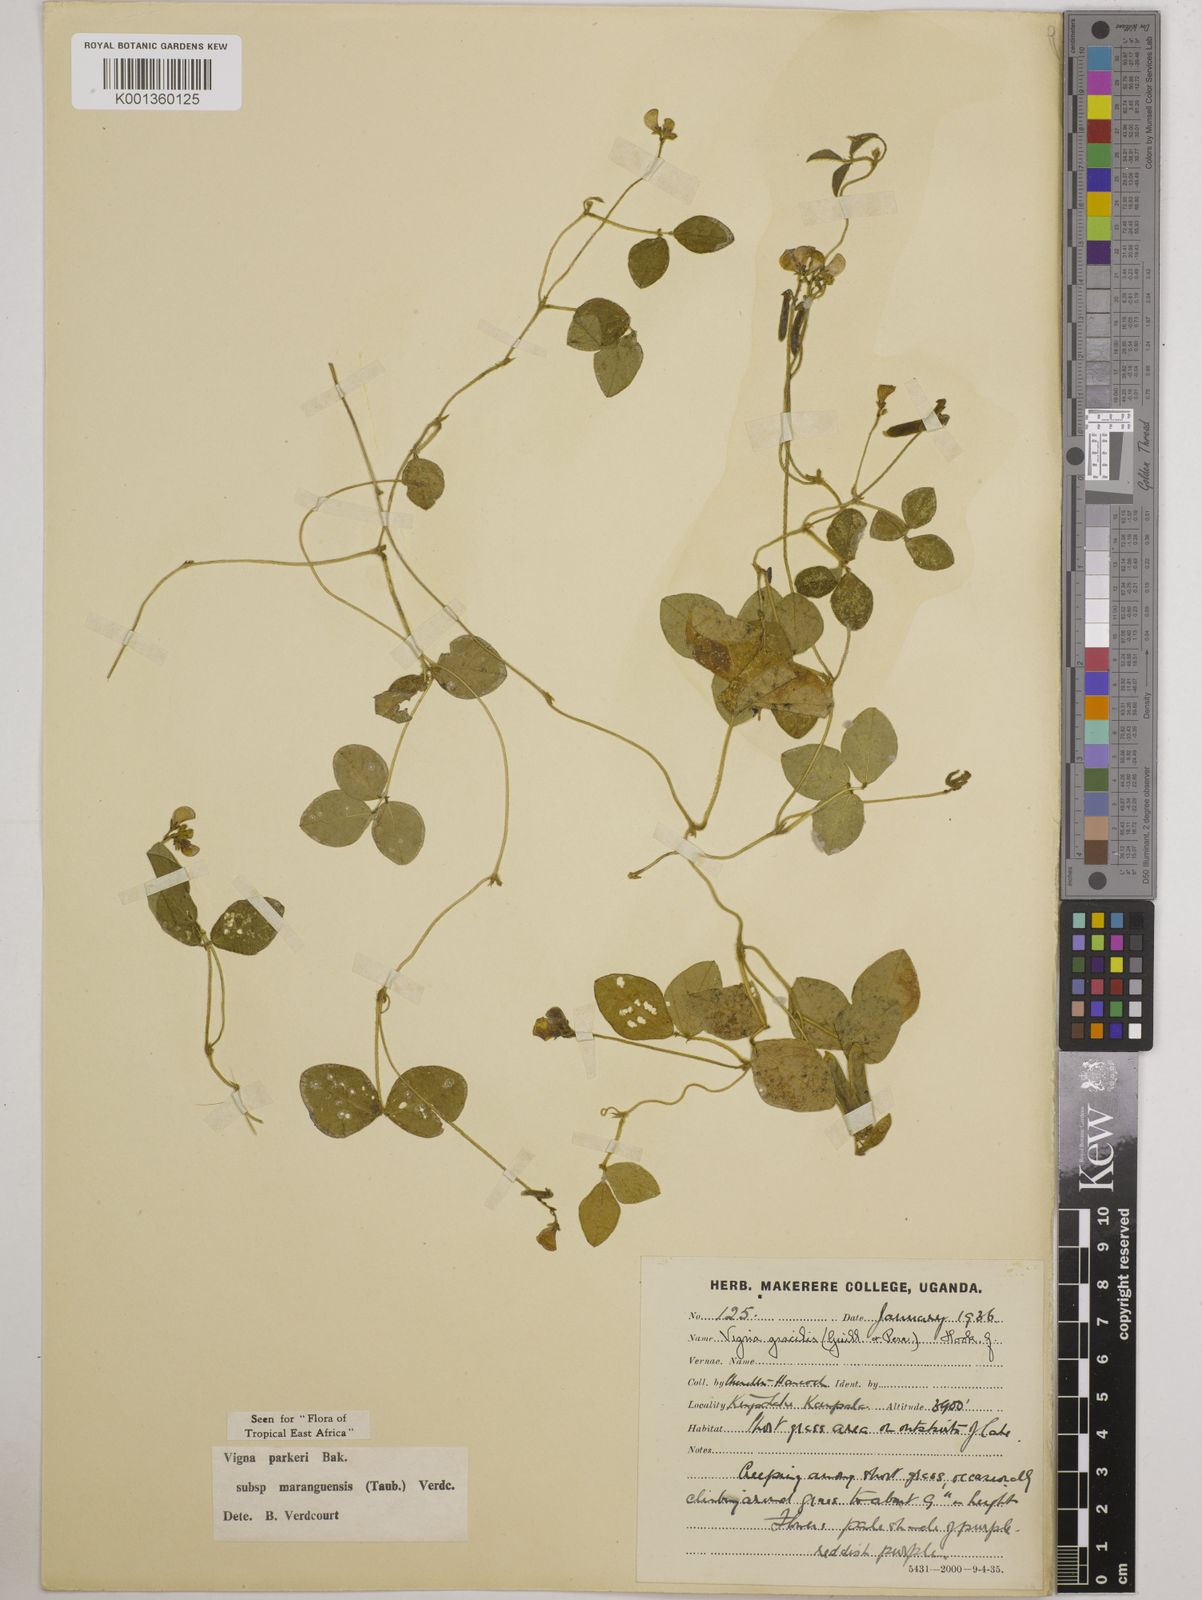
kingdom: Plantae
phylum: Tracheophyta
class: Magnoliopsida
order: Fabales
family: Fabaceae
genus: Vigna
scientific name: Vigna
